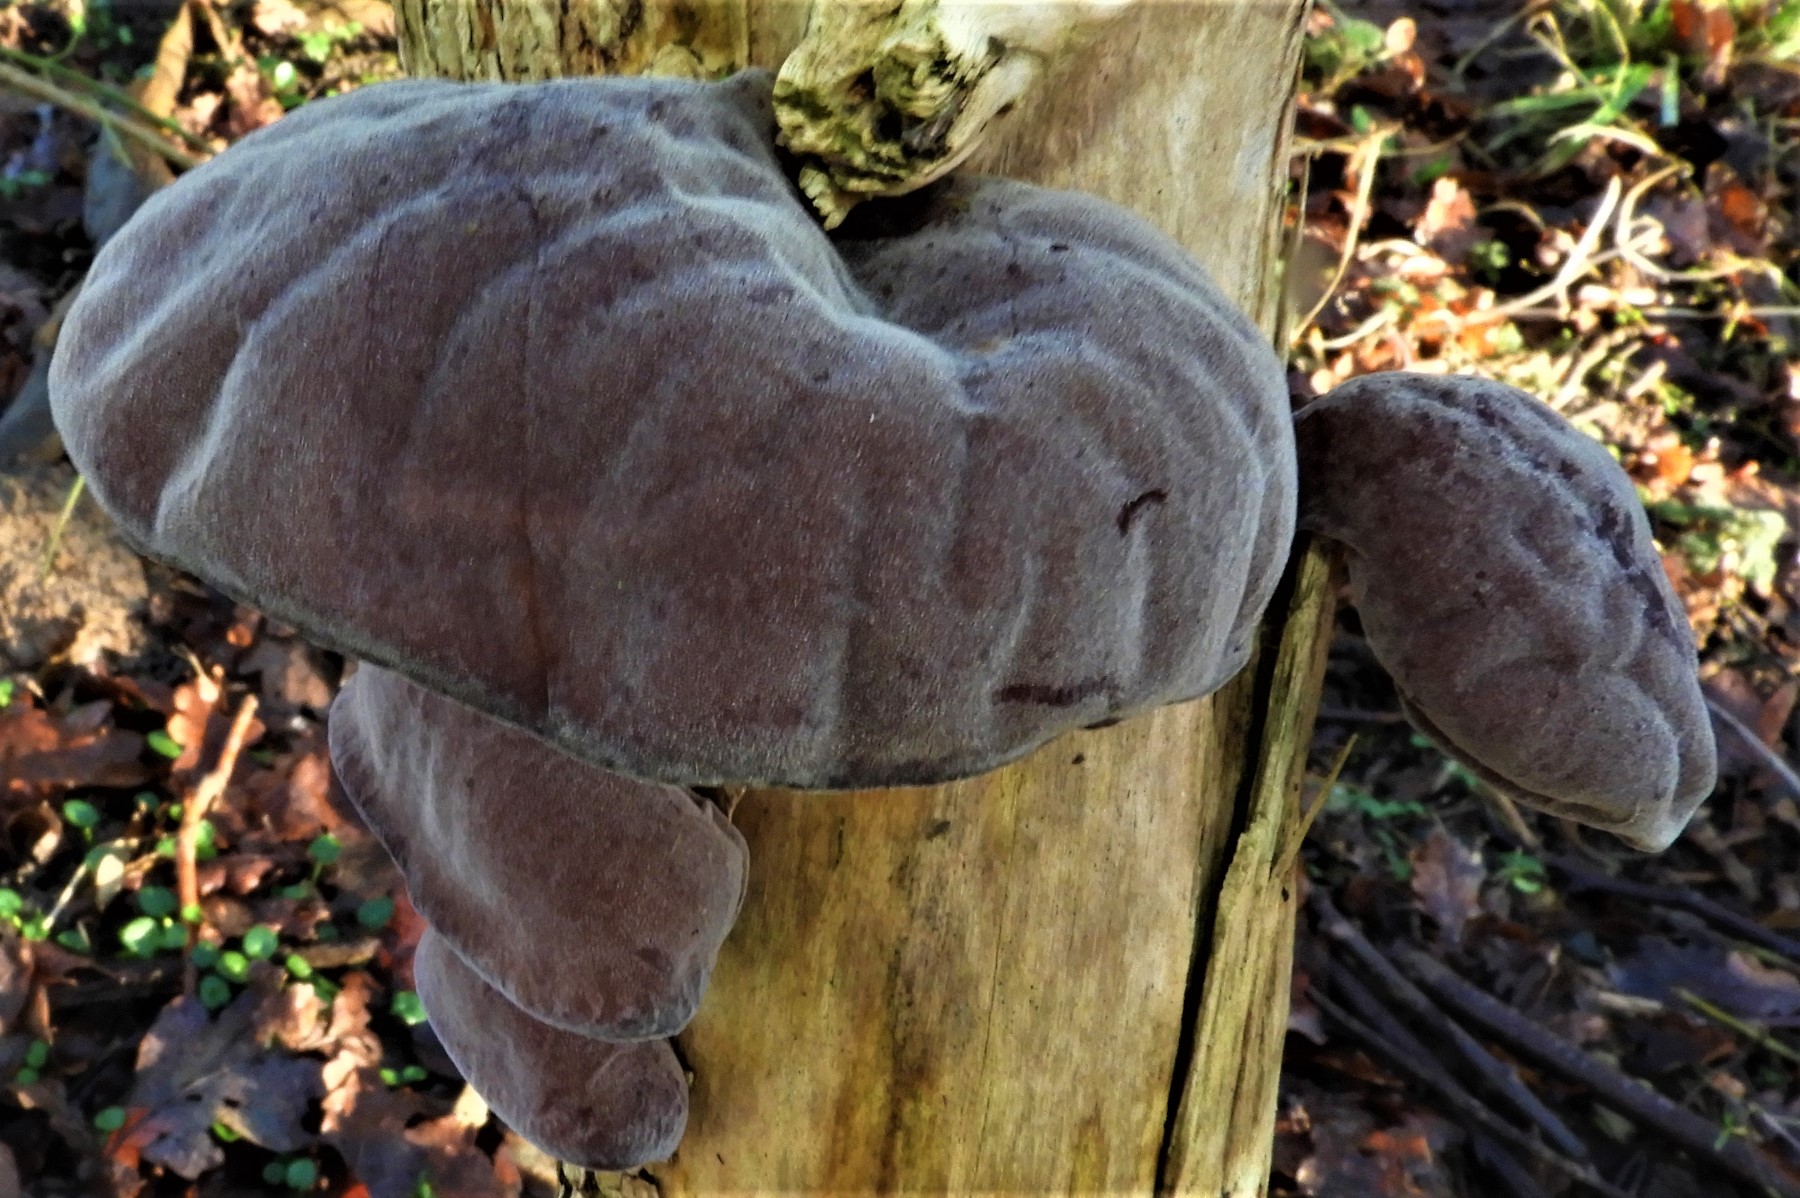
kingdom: Fungi
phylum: Basidiomycota
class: Agaricomycetes
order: Auriculariales
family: Auriculariaceae
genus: Auricularia
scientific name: Auricularia auricula-judae
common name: almindelig judasøre
